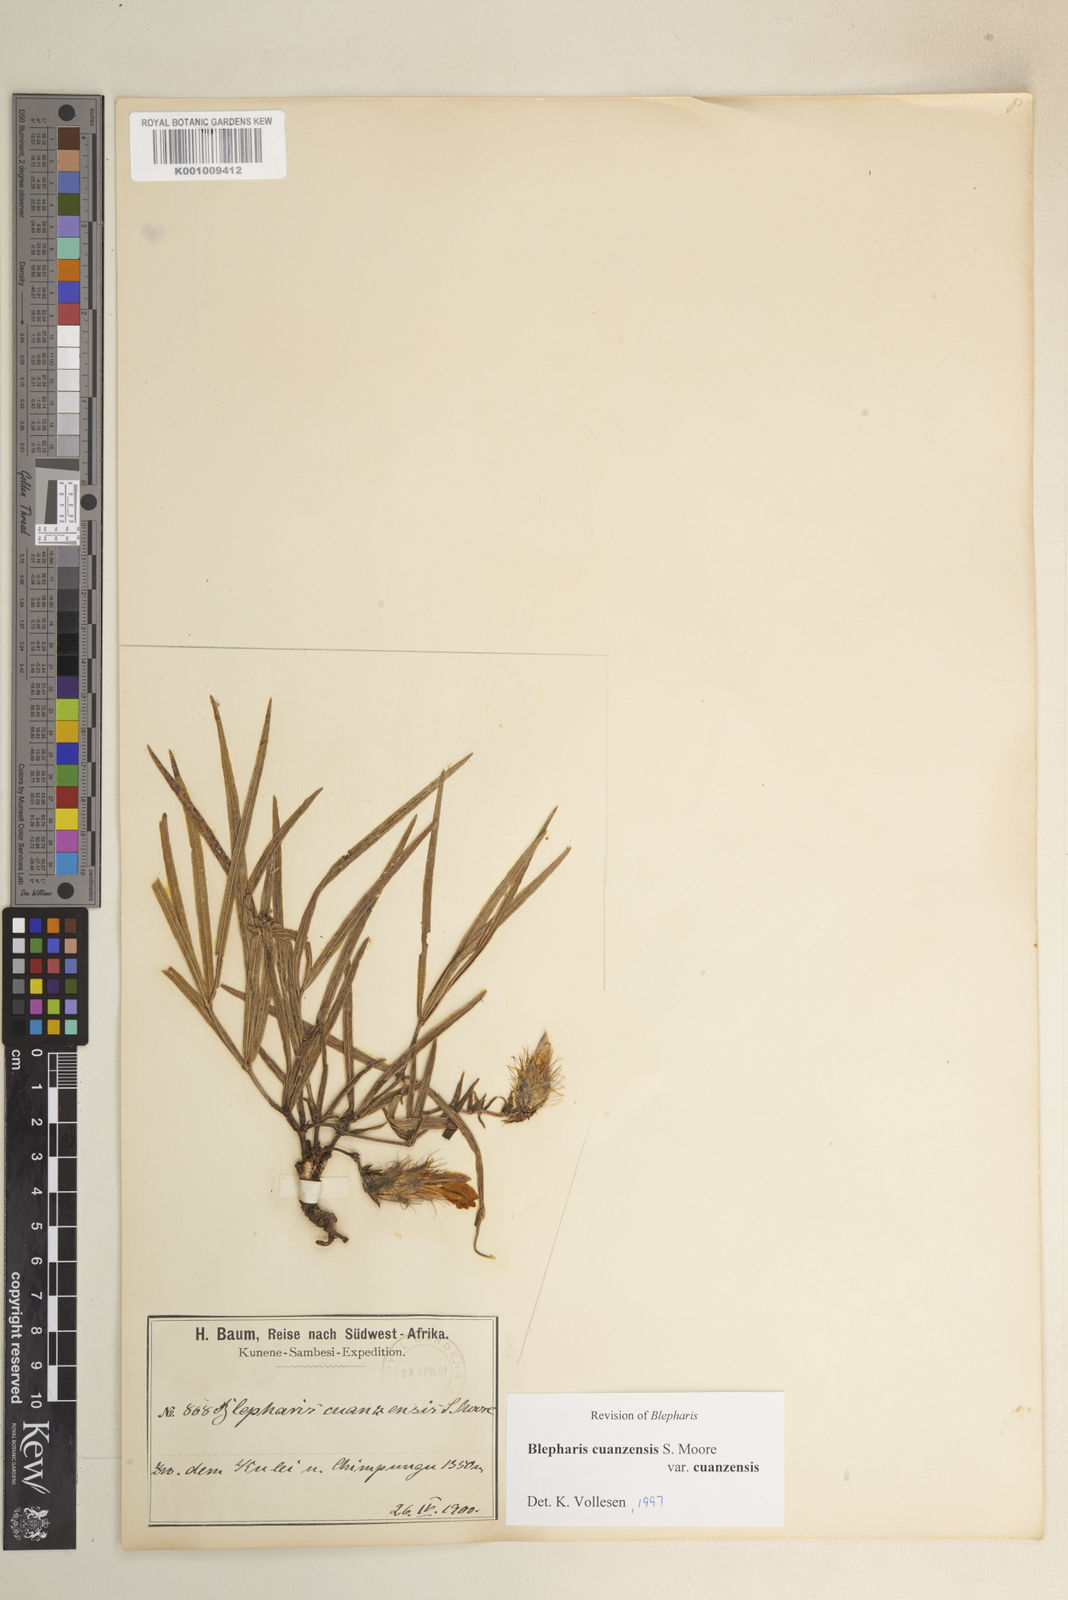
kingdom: Plantae
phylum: Tracheophyta
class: Magnoliopsida
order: Lamiales
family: Acanthaceae
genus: Blepharis
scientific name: Blepharis cuanzensis
